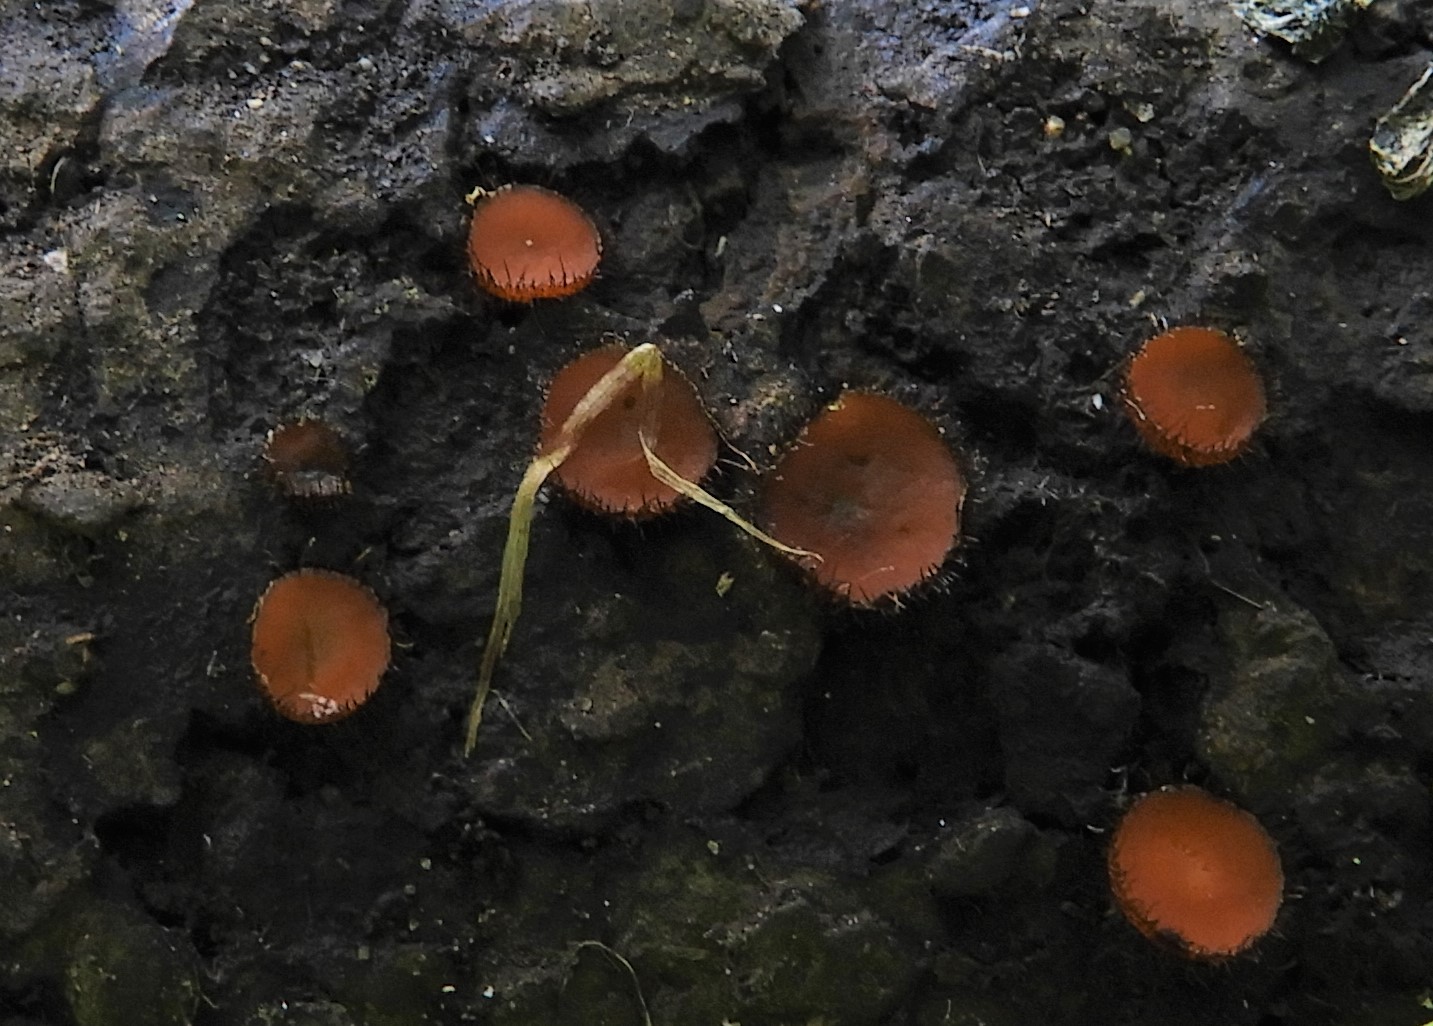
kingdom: Fungi
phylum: Ascomycota
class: Pezizomycetes
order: Pezizales
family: Pyronemataceae
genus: Scutellinia
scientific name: Scutellinia scutellata
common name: frynset skjoldbæger
